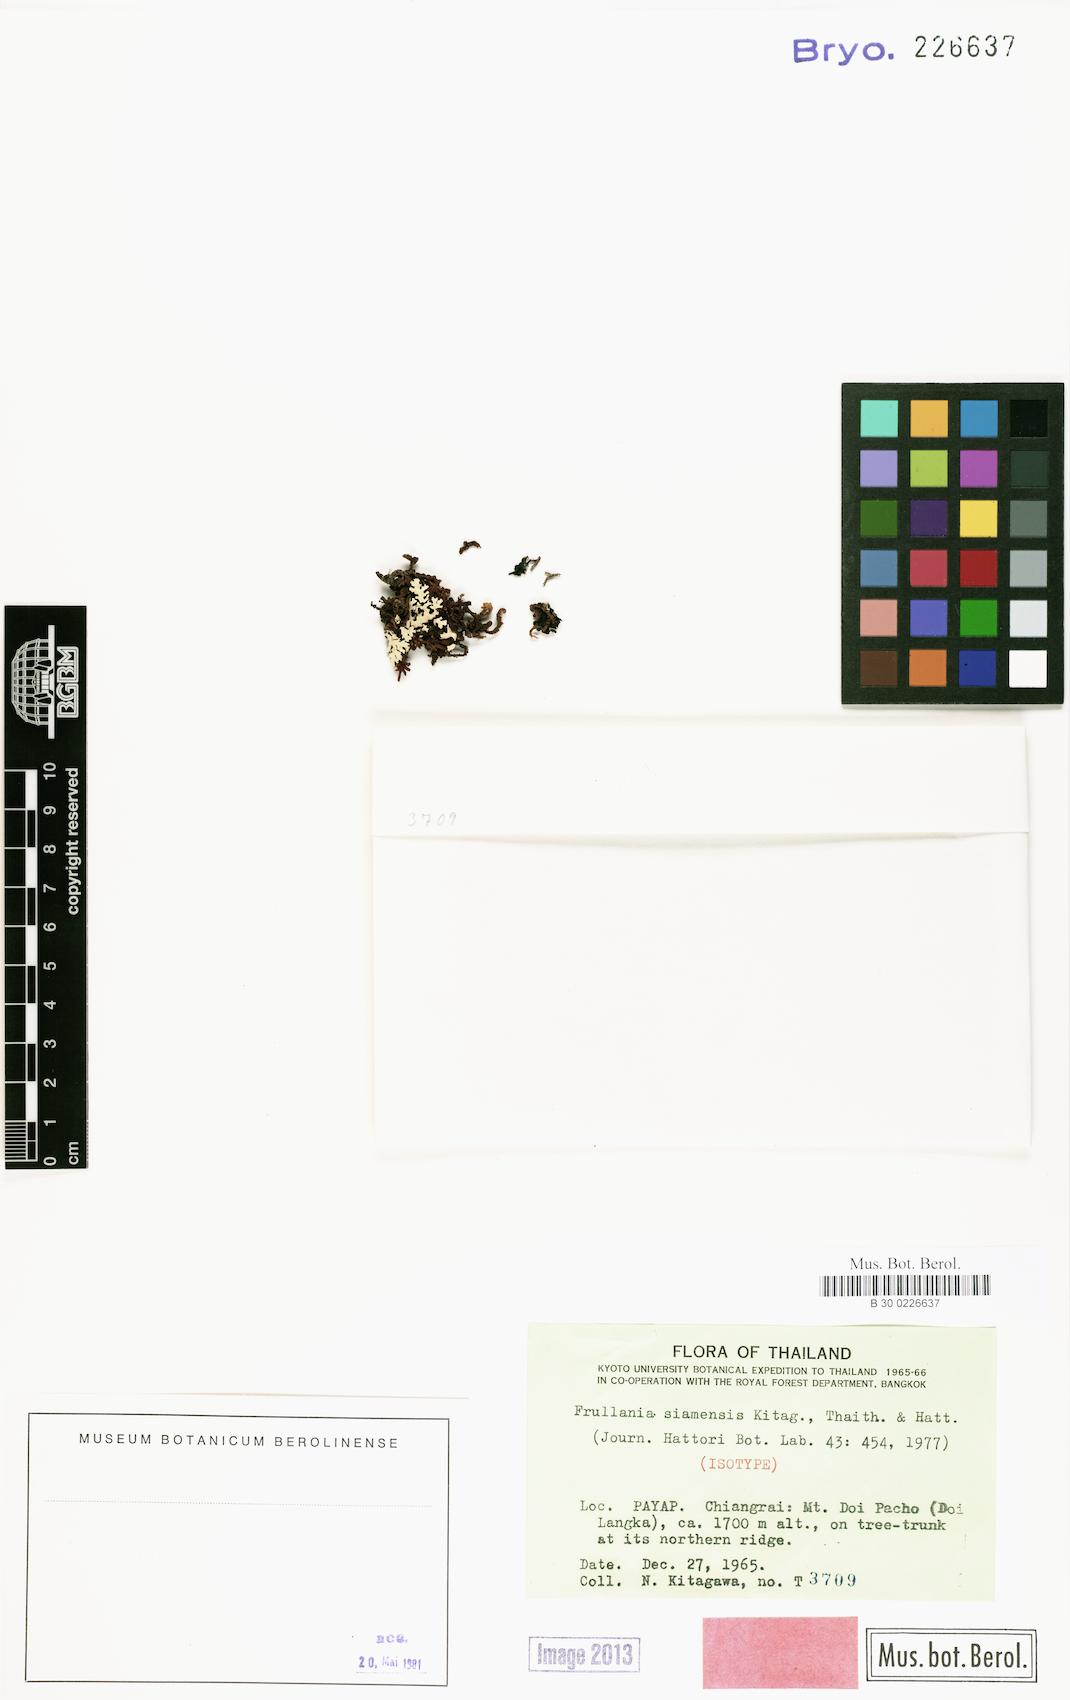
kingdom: Plantae
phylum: Marchantiophyta
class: Jungermanniopsida
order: Porellales
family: Frullaniaceae
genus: Frullania
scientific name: Frullania yuennanensis
